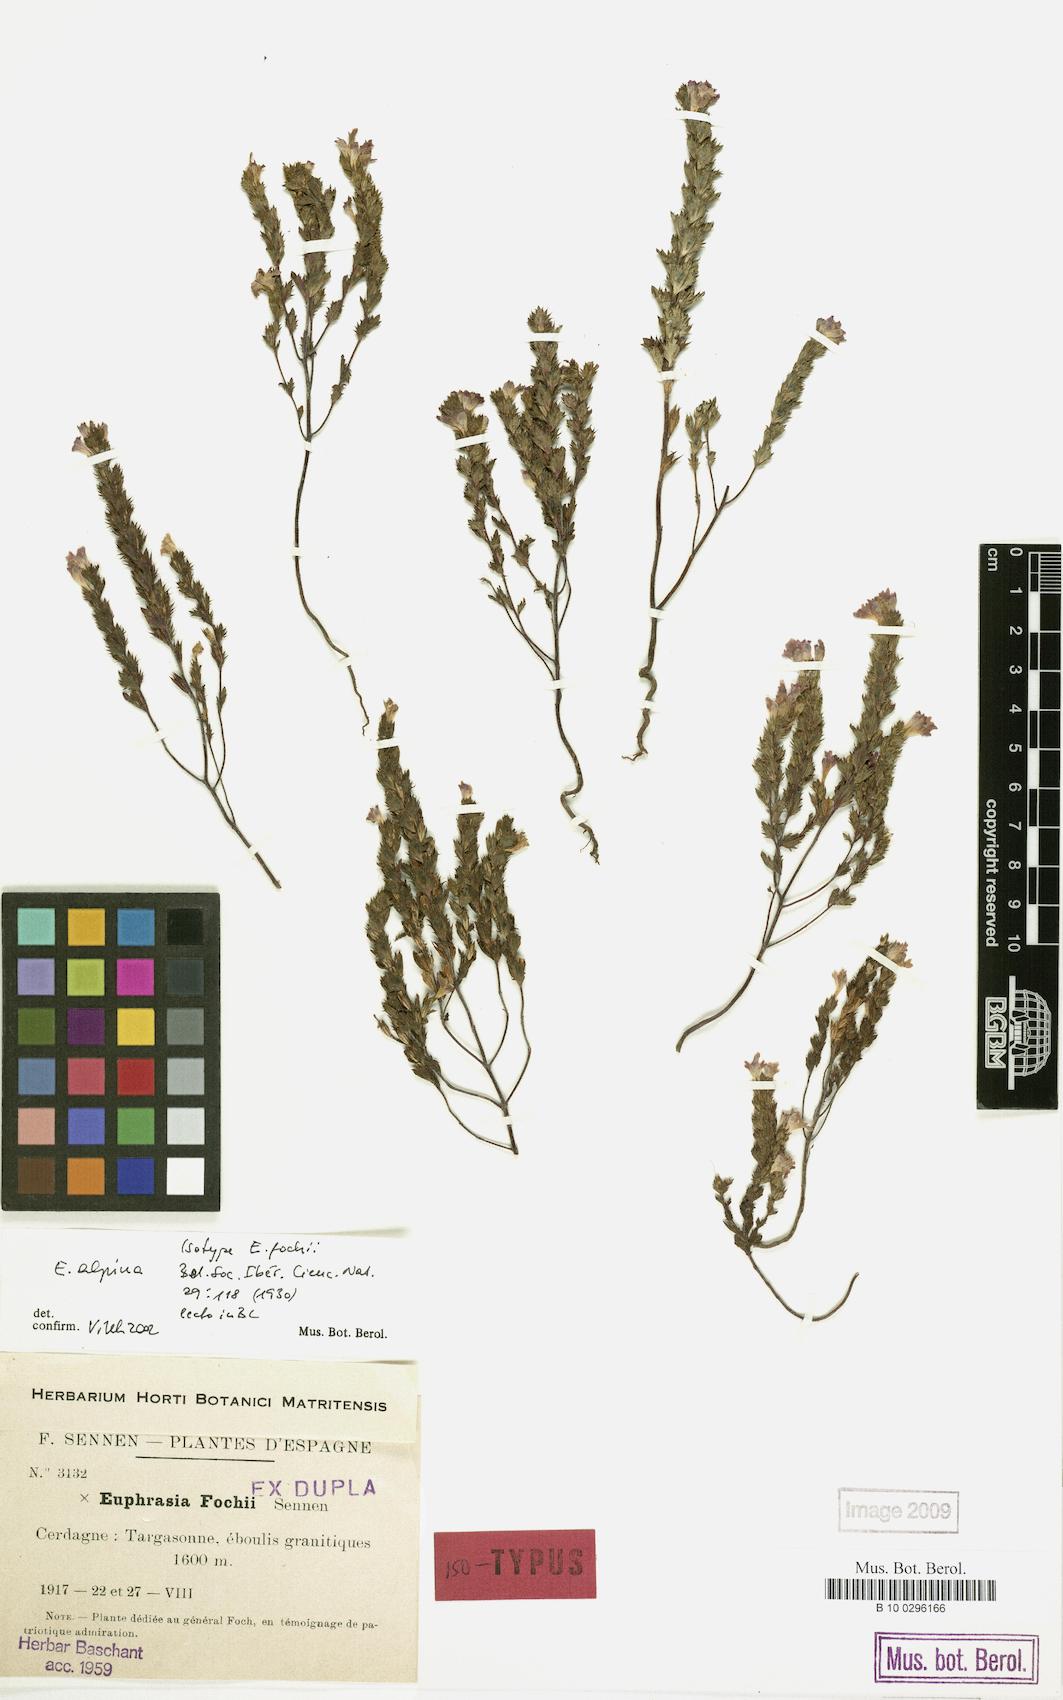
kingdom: Plantae
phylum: Tracheophyta
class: Magnoliopsida
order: Lamiales
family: Orobanchaceae
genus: Euphrasia
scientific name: Euphrasia alpina
